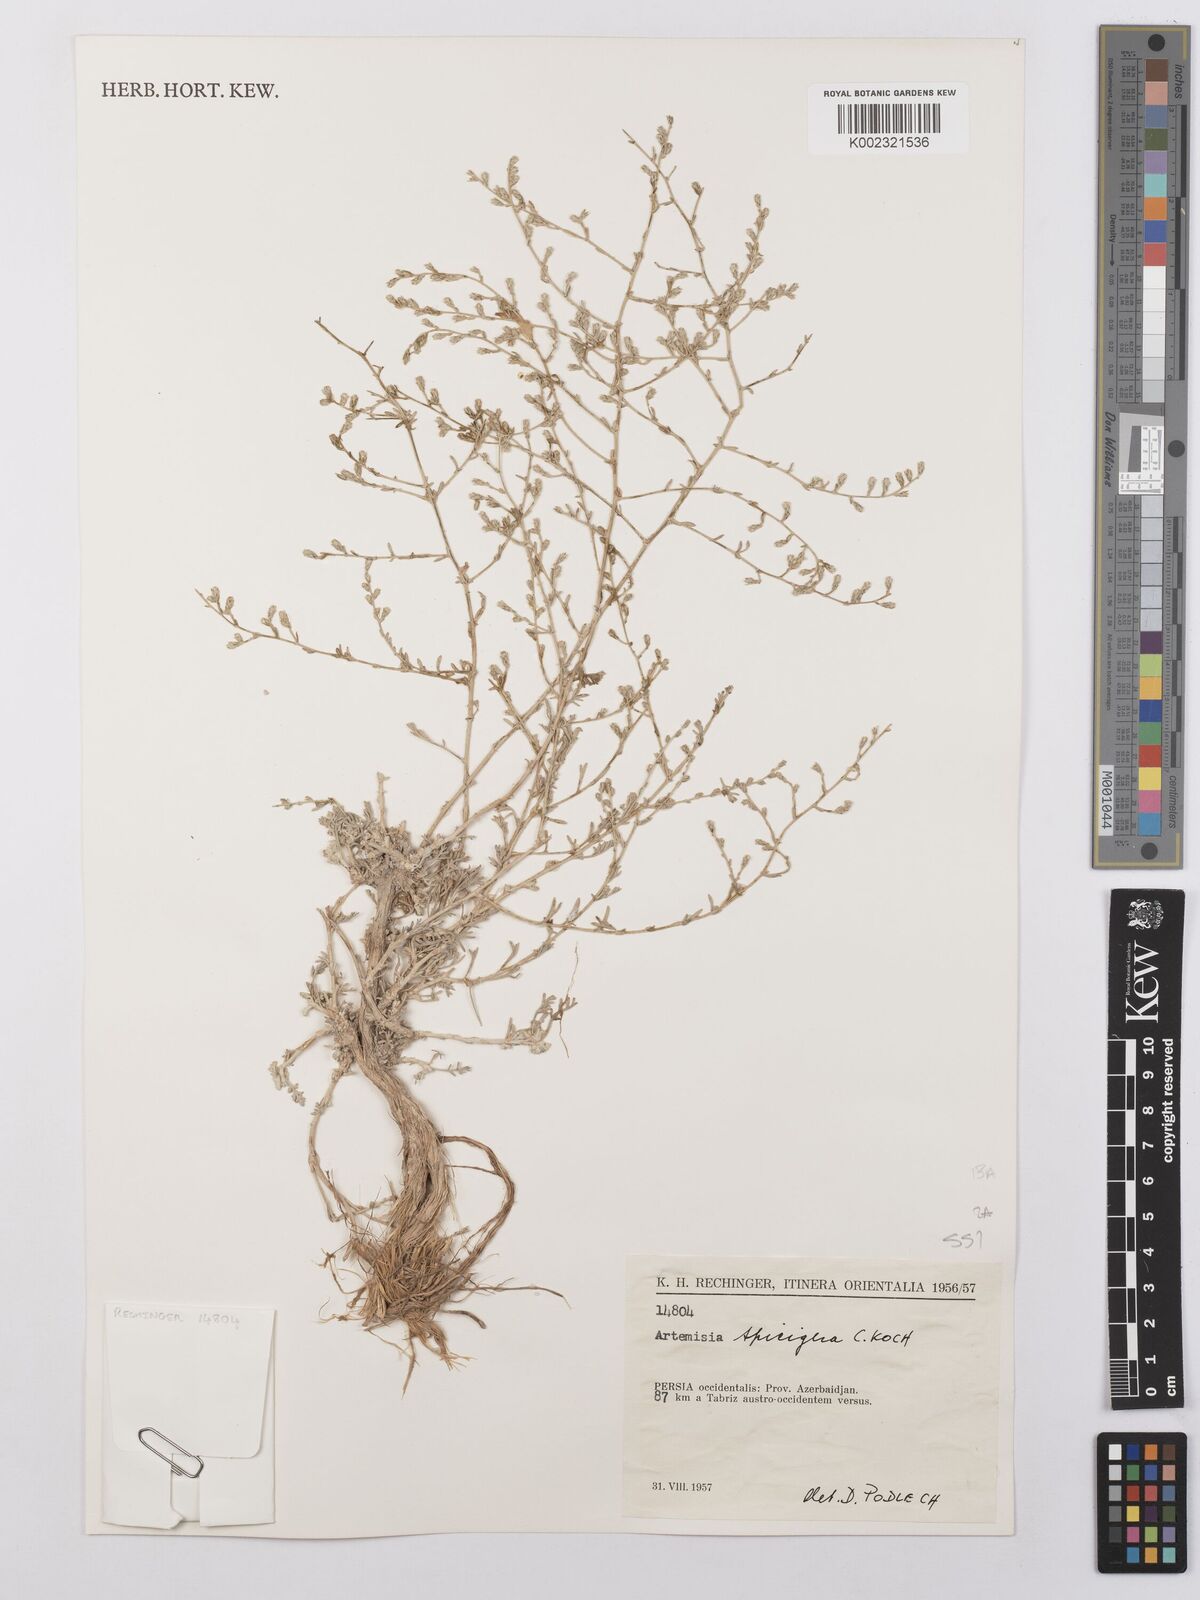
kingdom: Plantae
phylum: Tracheophyta
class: Magnoliopsida
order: Asterales
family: Asteraceae
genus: Artemisia
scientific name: Artemisia spicigera
